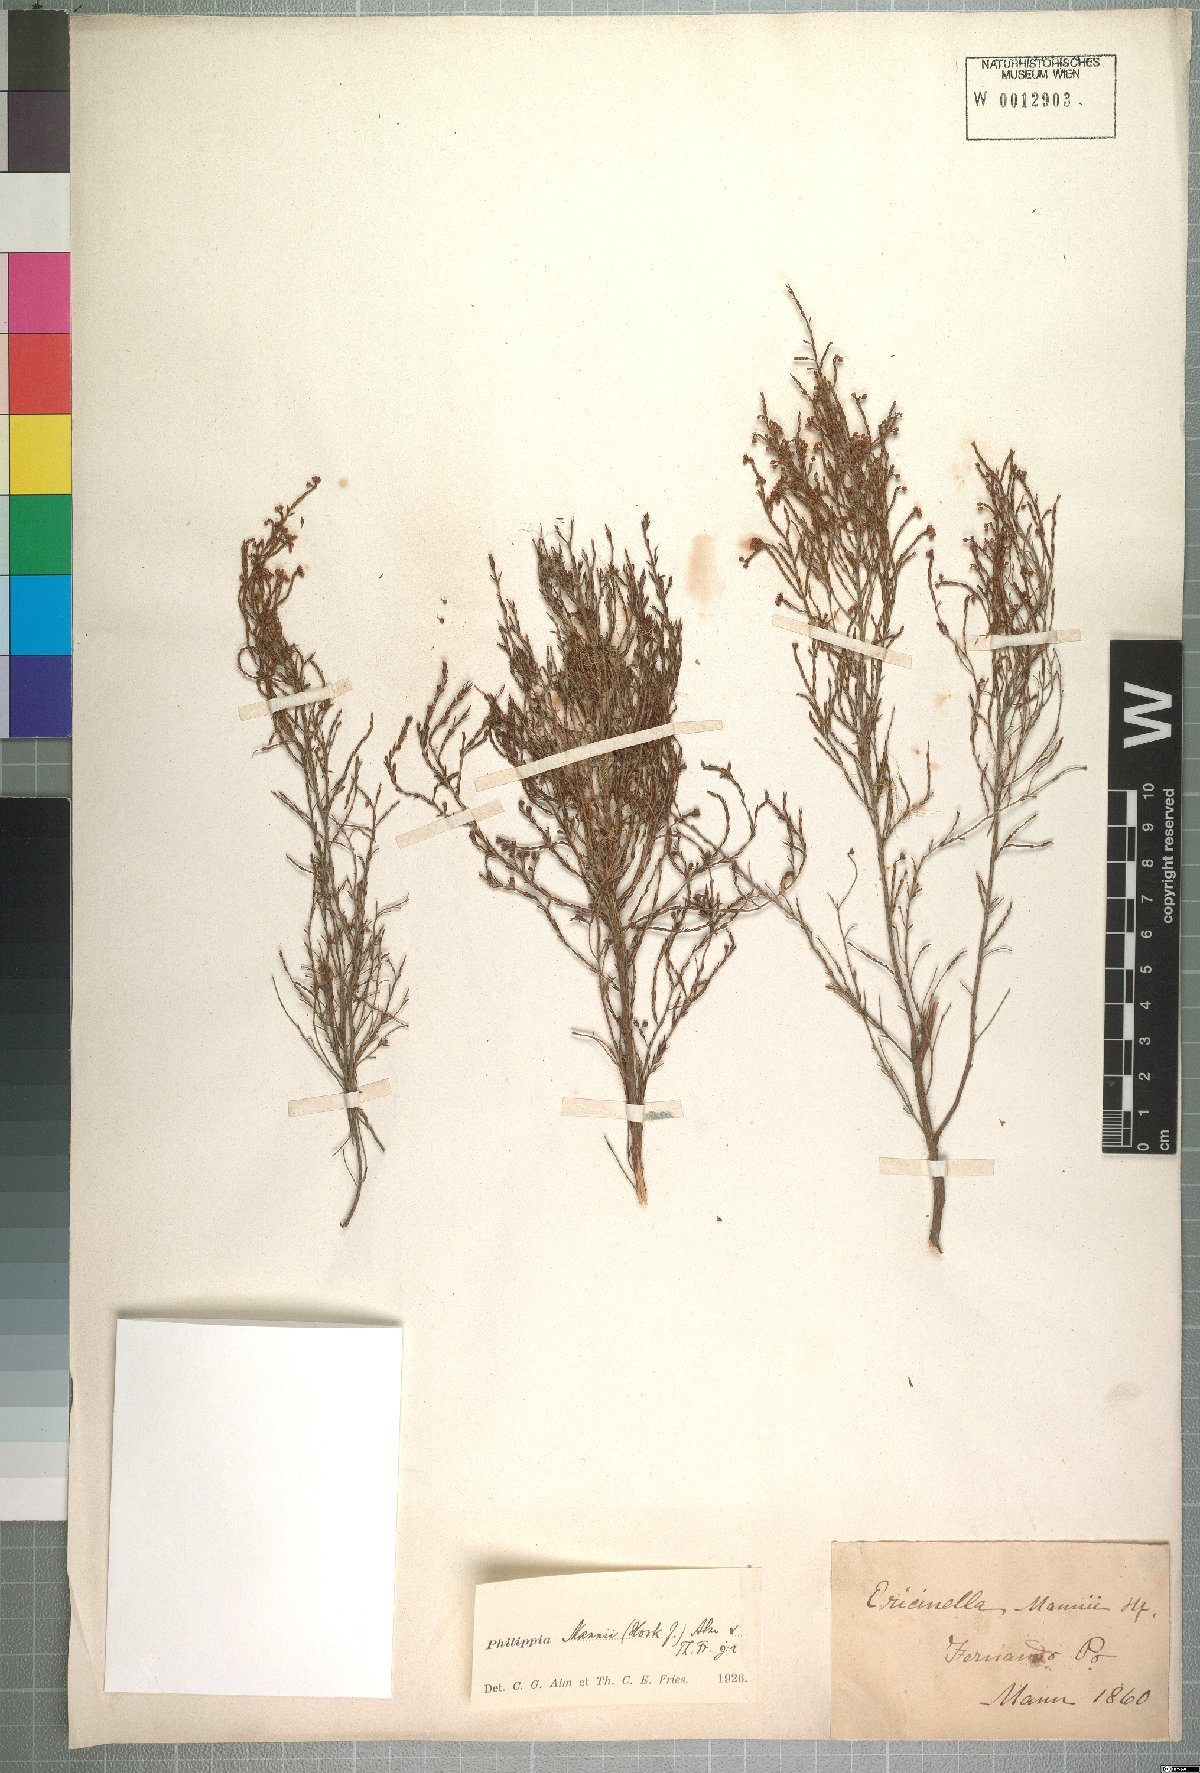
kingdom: Plantae
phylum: Tracheophyta
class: Magnoliopsida
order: Ericales
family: Ericaceae
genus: Erica
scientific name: Erica mannii
